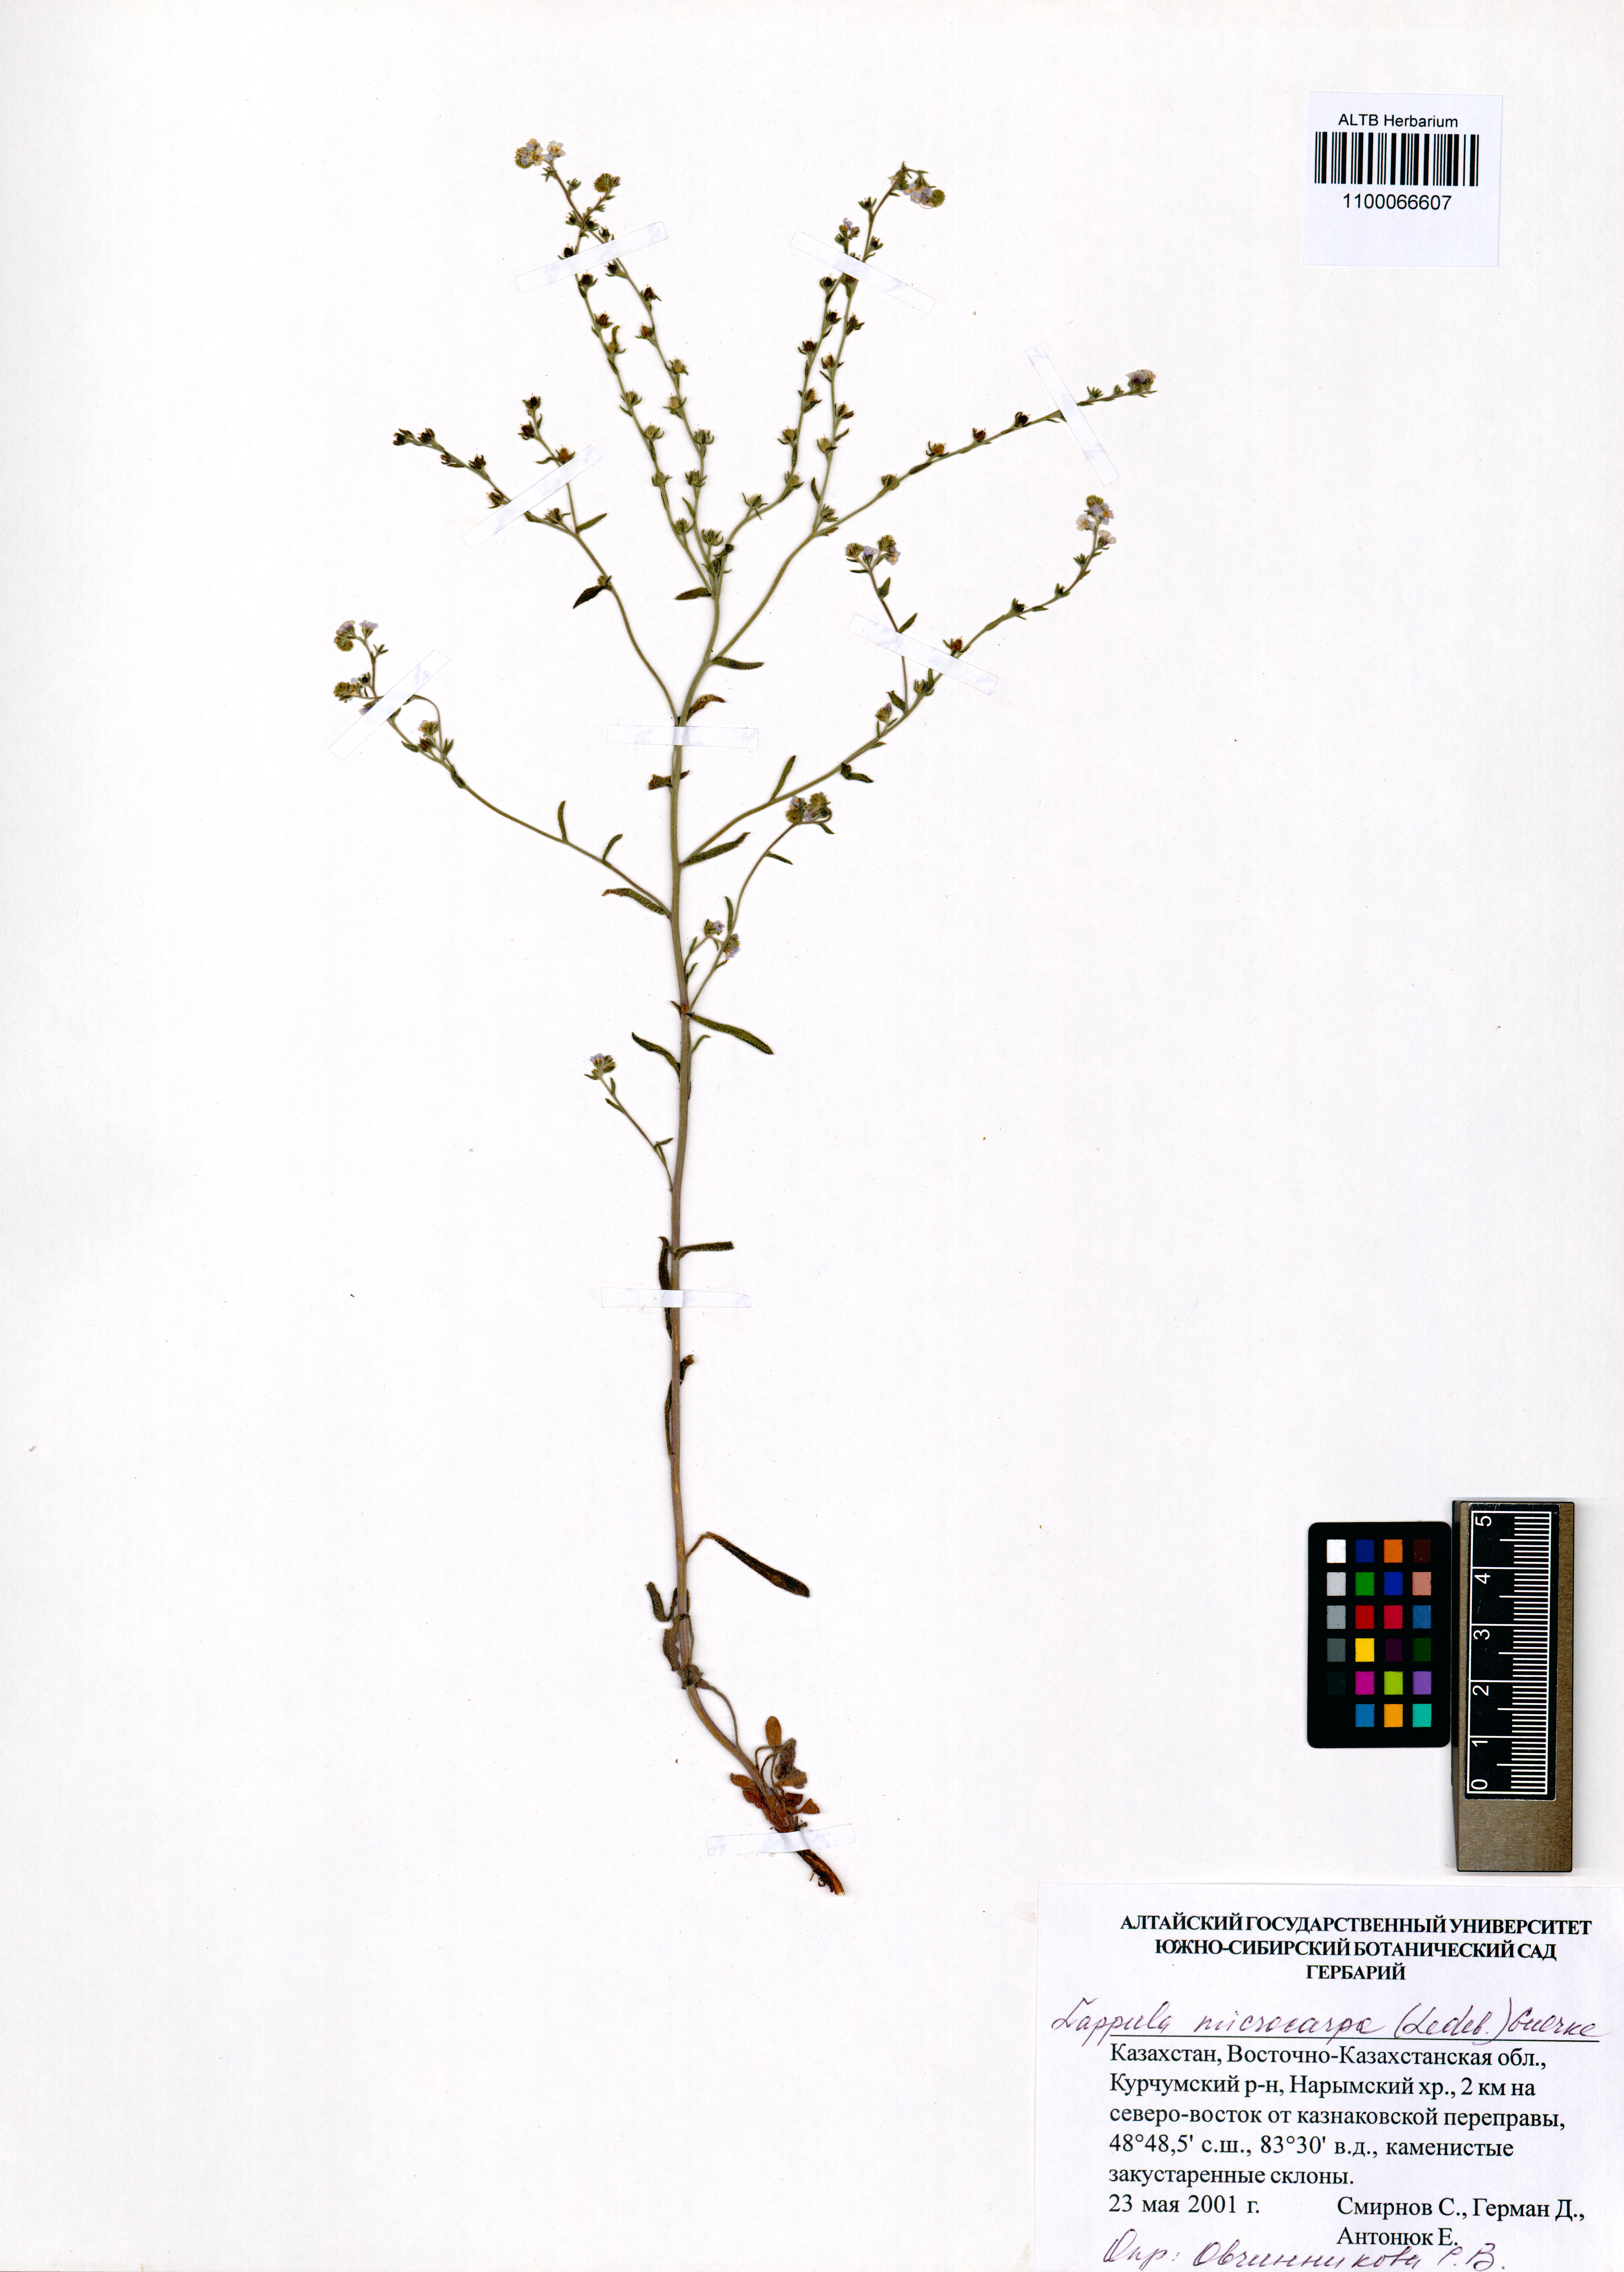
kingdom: Plantae
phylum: Tracheophyta
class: Magnoliopsida
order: Boraginales
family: Boraginaceae
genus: Lappula
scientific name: Lappula microcarpa
